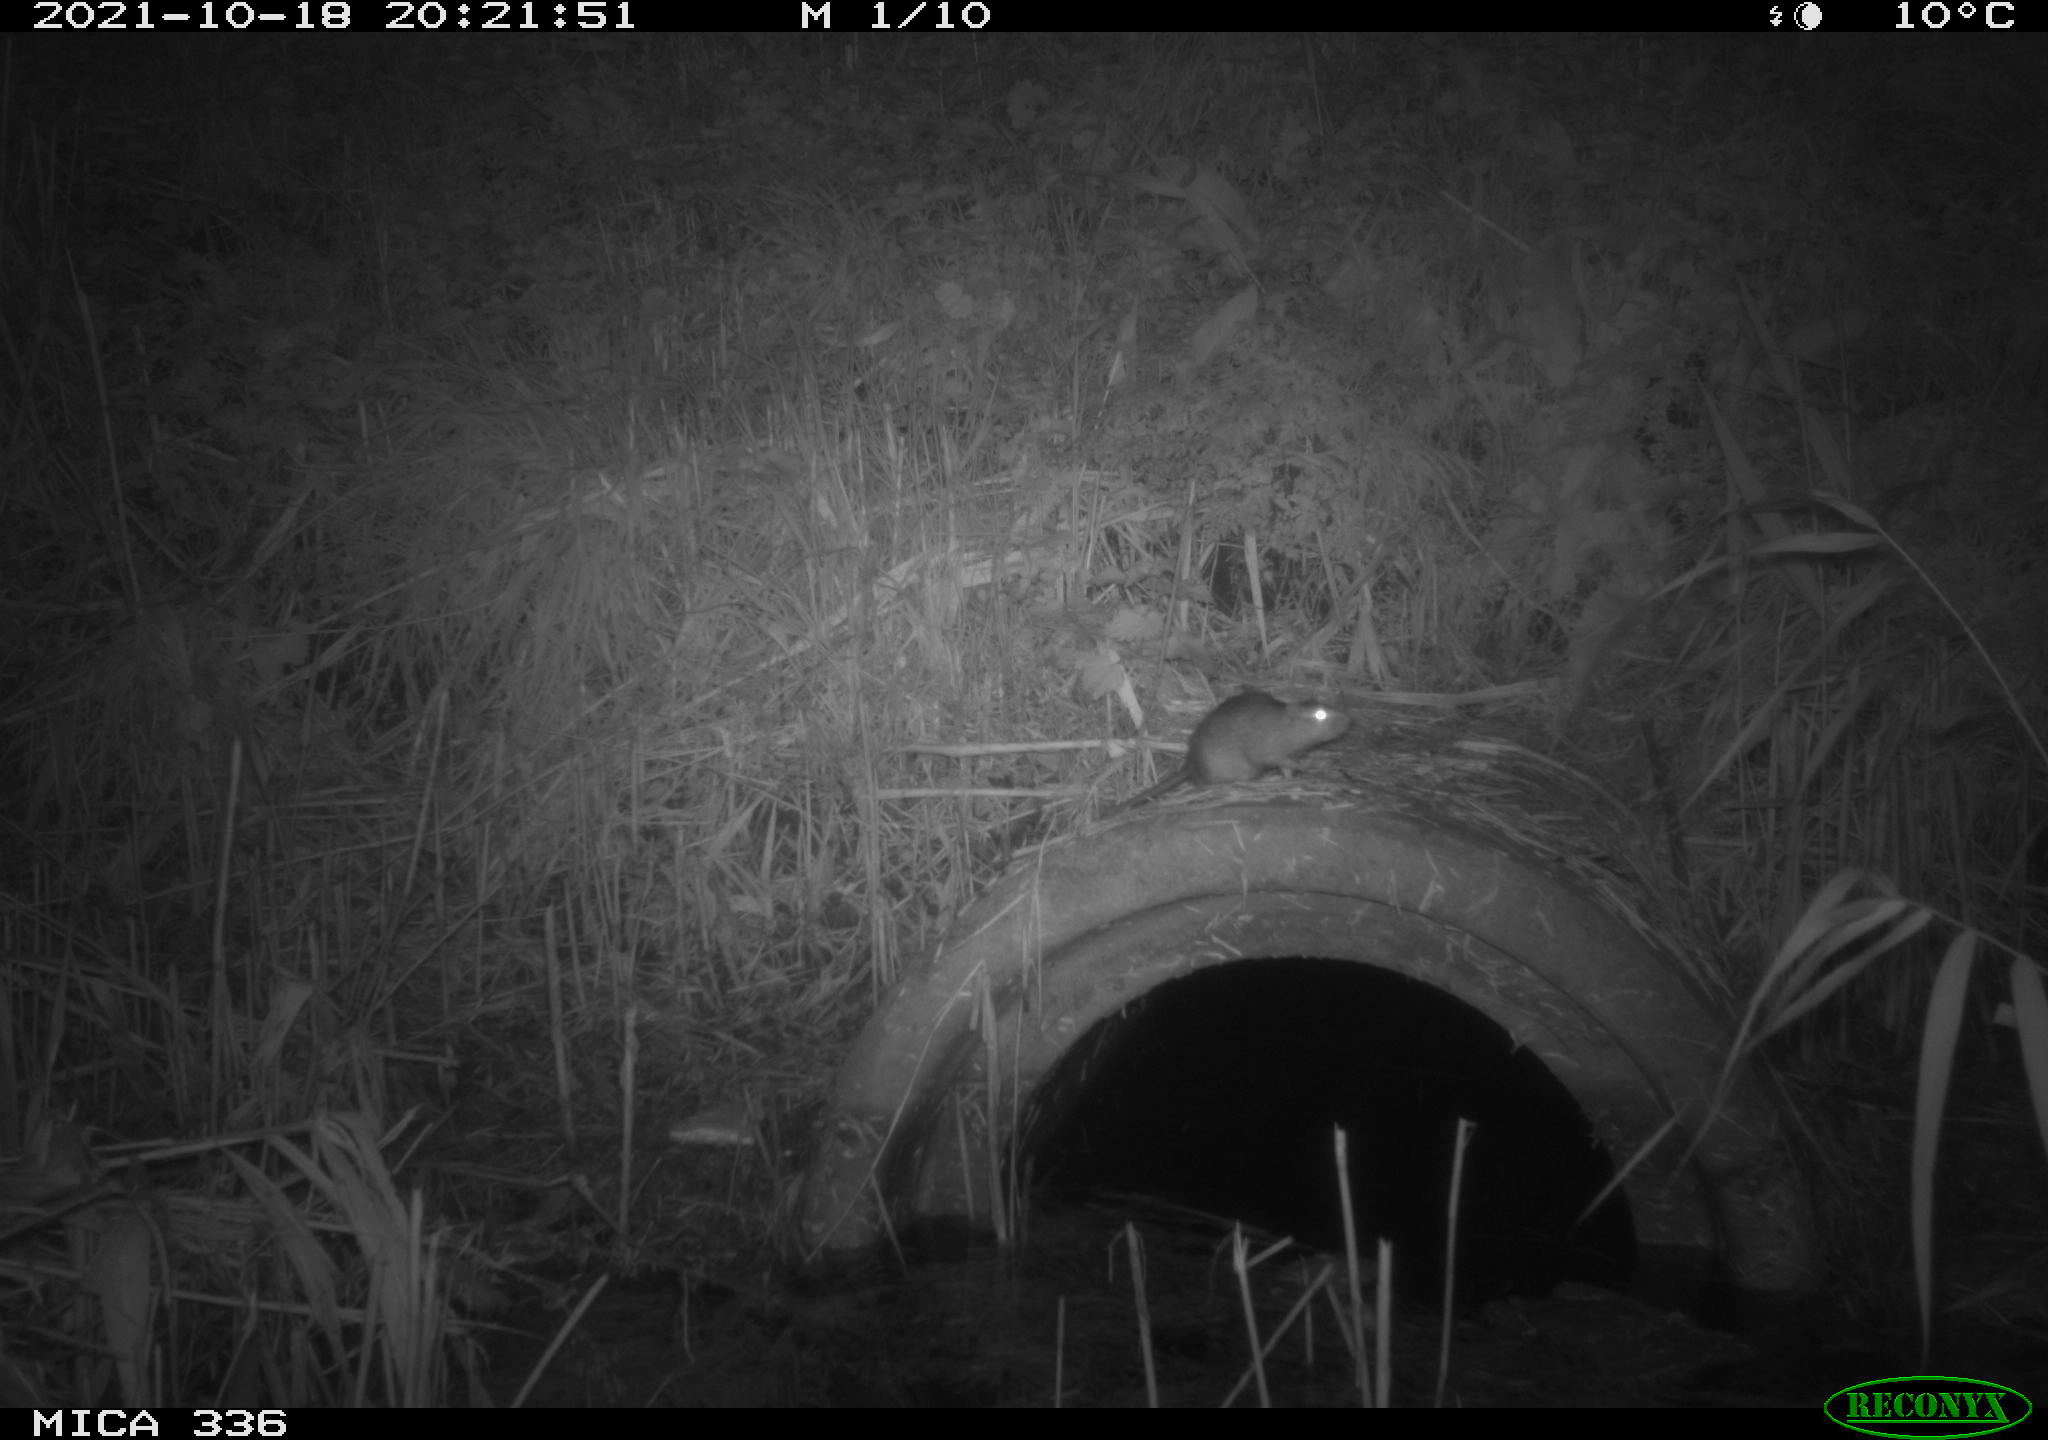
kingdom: Animalia
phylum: Chordata
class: Mammalia
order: Rodentia
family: Muridae
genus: Rattus
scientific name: Rattus norvegicus
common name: Brown rat
